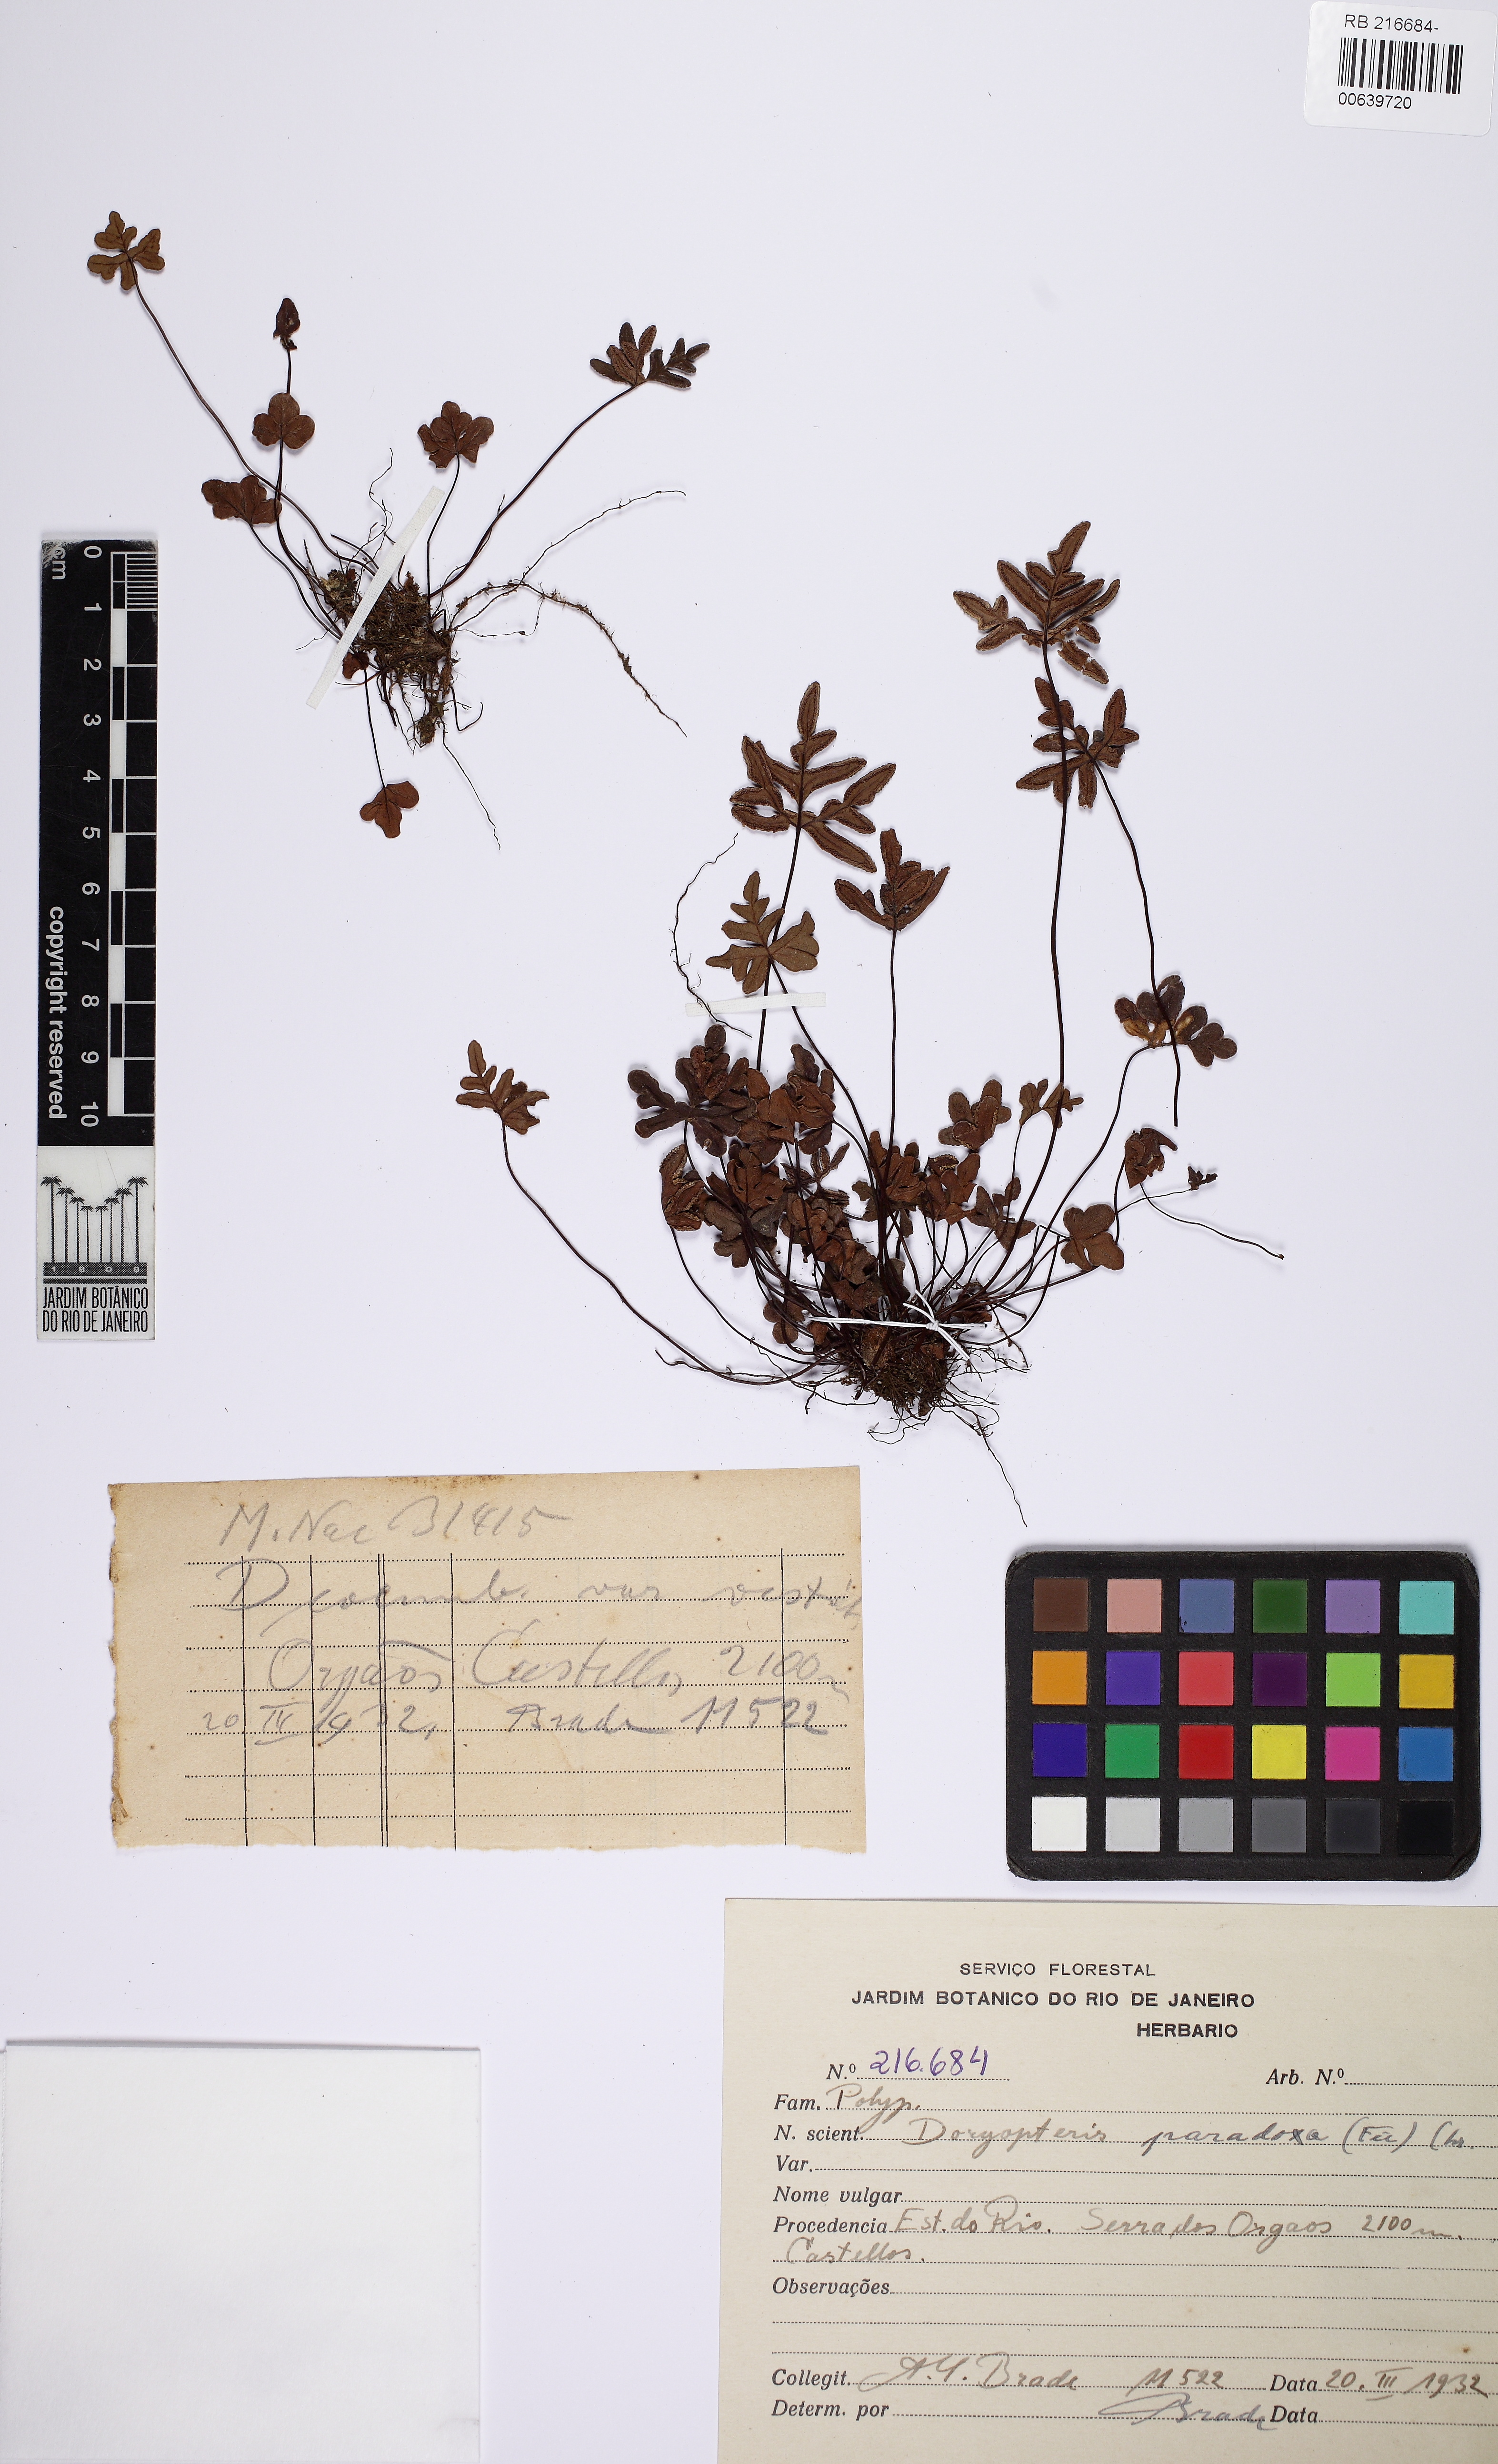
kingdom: Plantae
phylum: Tracheophyta
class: Polypodiopsida
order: Polypodiales
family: Pteridaceae
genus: Lytoneuron
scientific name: Lytoneuron paradoxum
